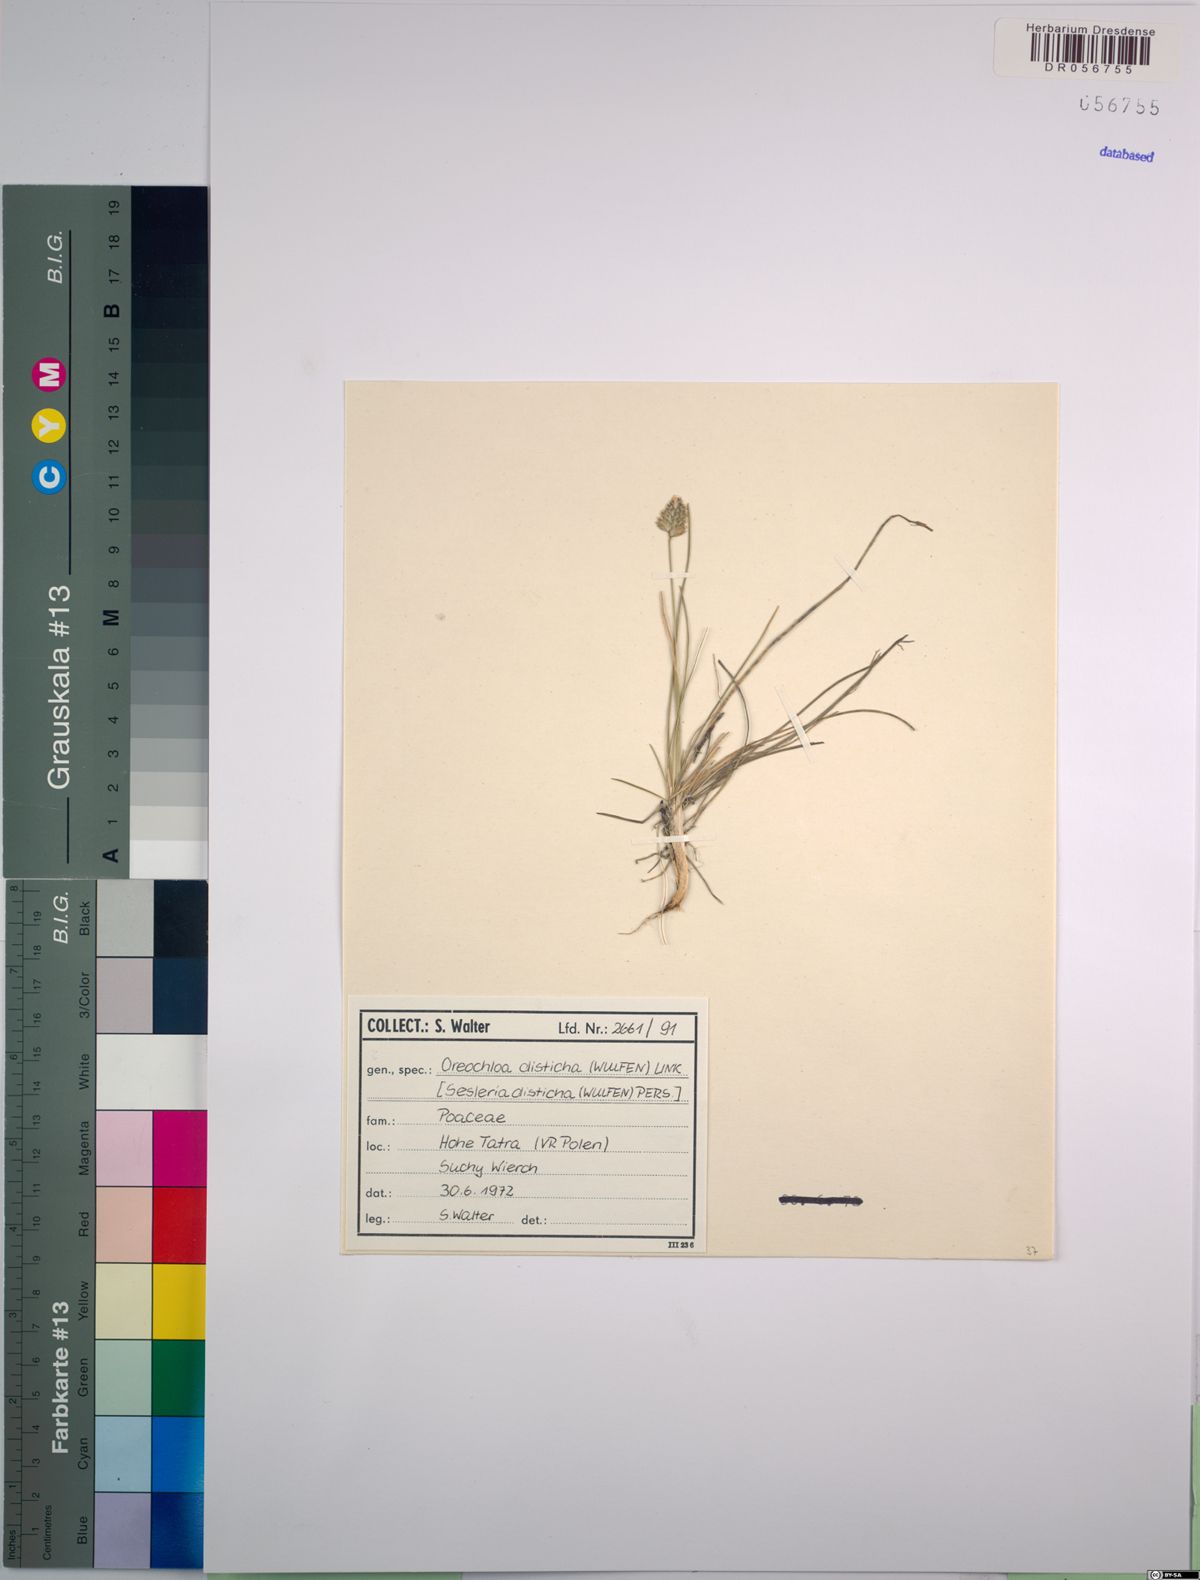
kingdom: Plantae
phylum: Tracheophyta
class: Liliopsida
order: Poales
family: Poaceae
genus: Oreochloa
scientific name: Oreochloa disticha
